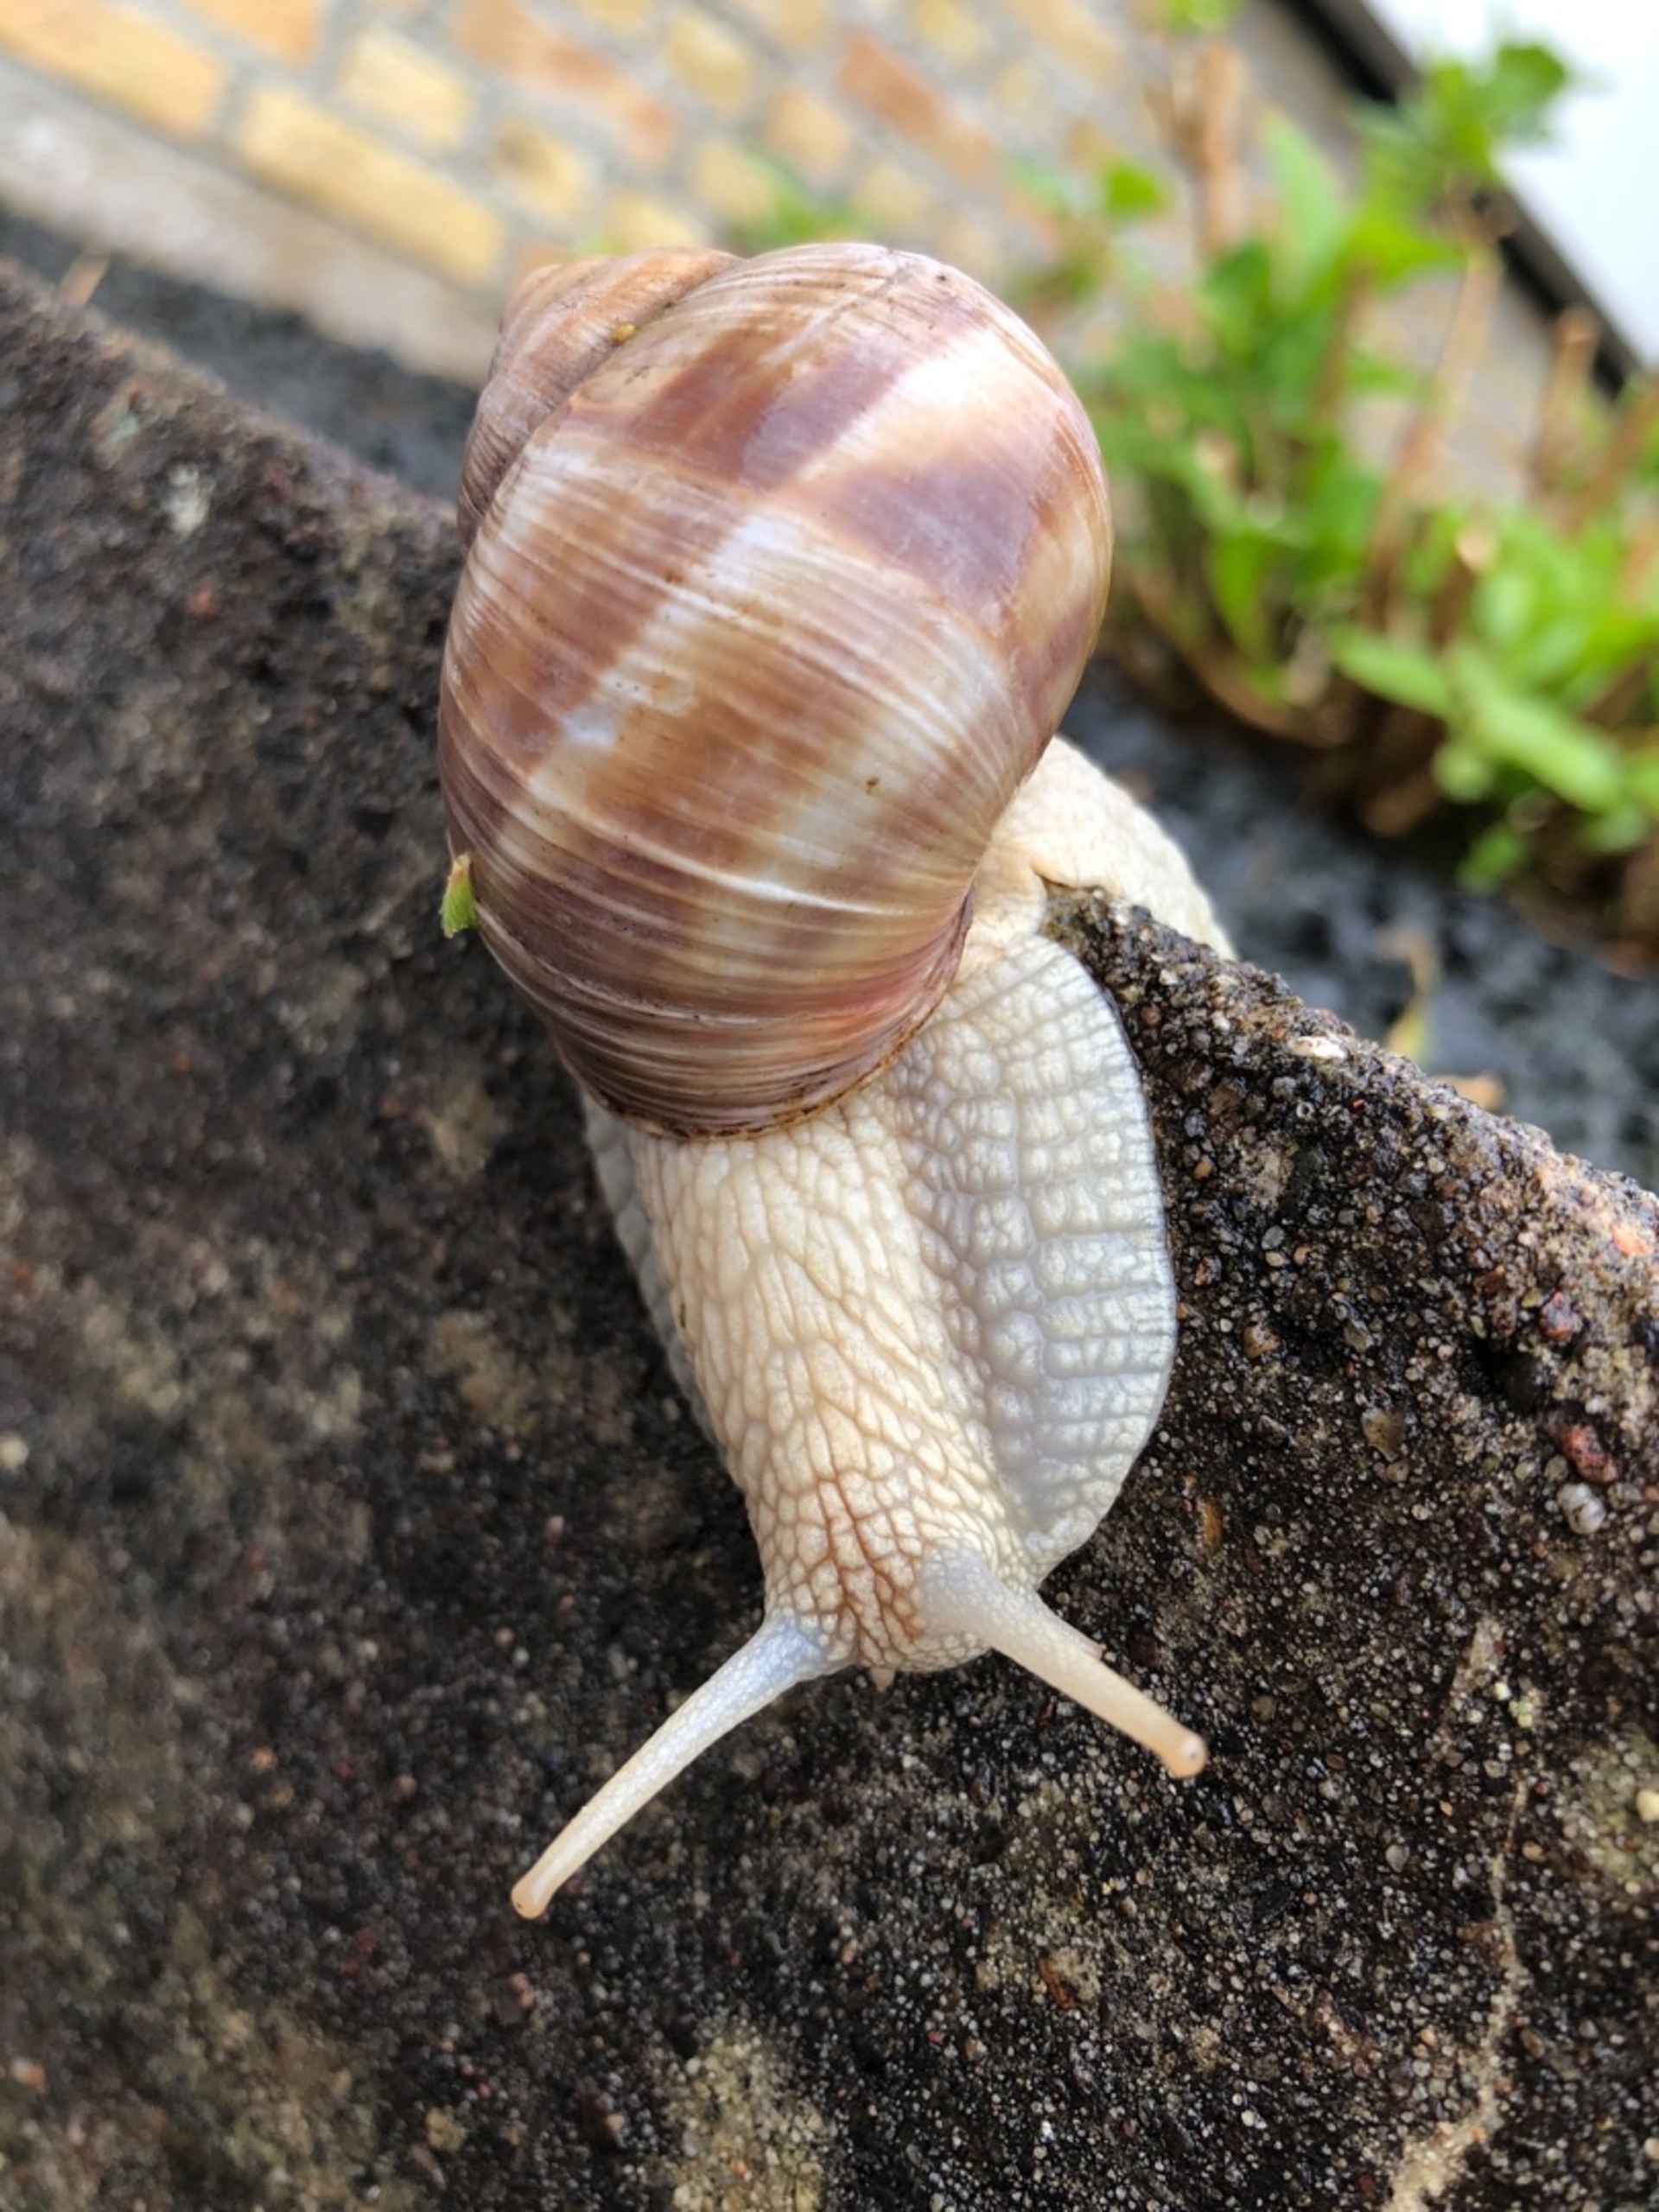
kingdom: Animalia
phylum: Mollusca
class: Gastropoda
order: Stylommatophora
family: Helicidae
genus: Helix
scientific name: Helix pomatia
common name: Vinbjergsnegl
